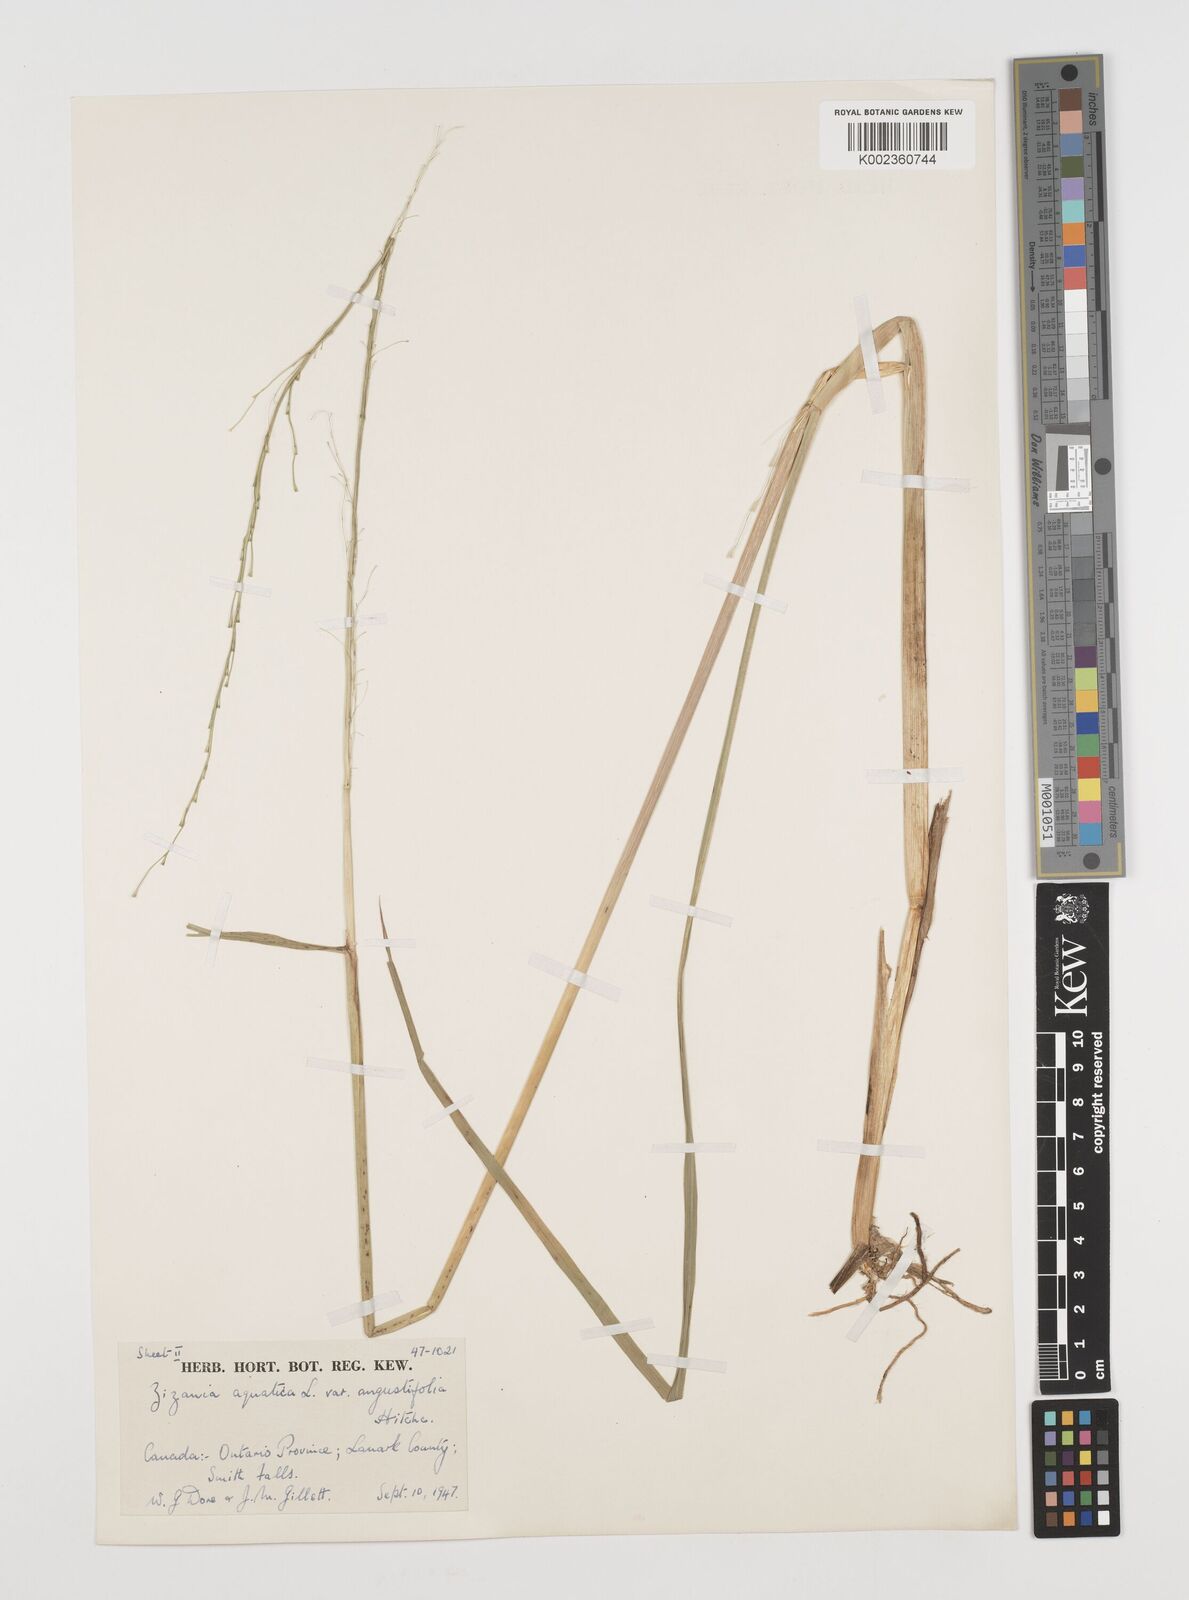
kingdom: Plantae
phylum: Tracheophyta
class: Liliopsida
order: Poales
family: Poaceae
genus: Zizania
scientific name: Zizania aquatica
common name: Annual wildrice
